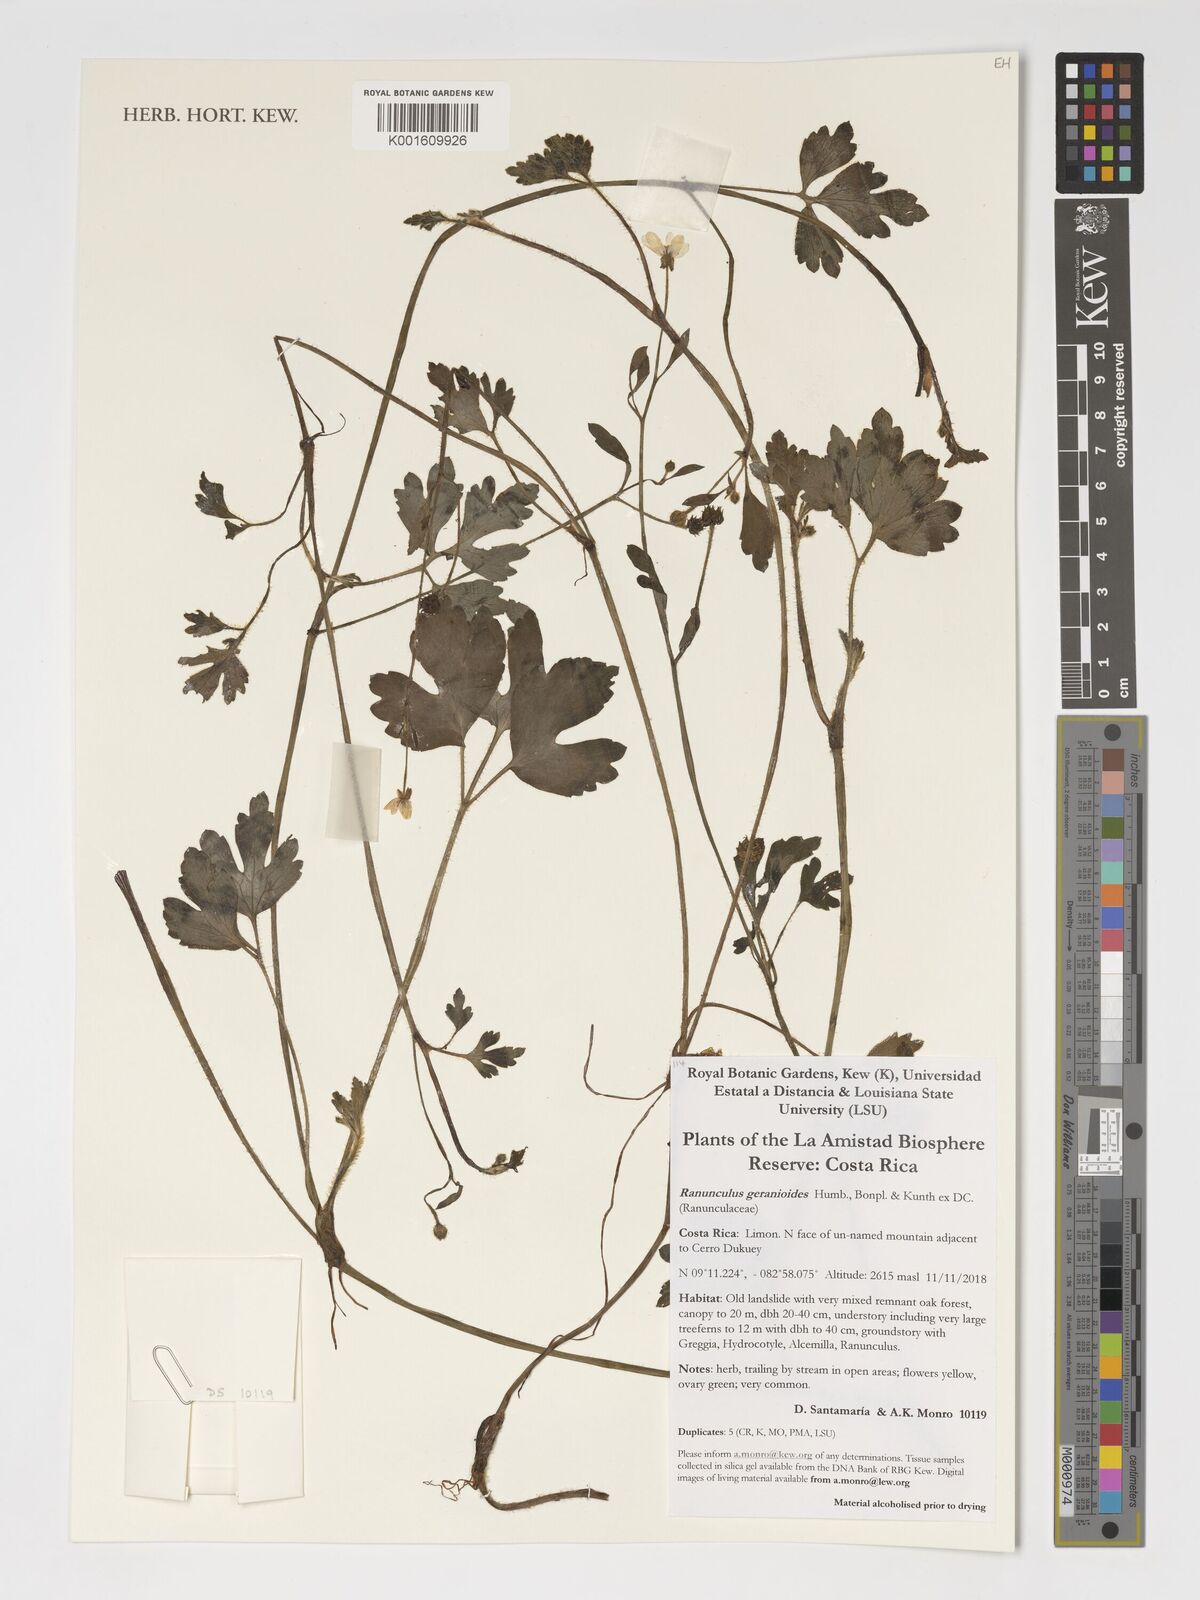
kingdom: Plantae
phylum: Tracheophyta
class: Magnoliopsida
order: Ranunculales
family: Ranunculaceae
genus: Ranunculus
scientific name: Ranunculus
